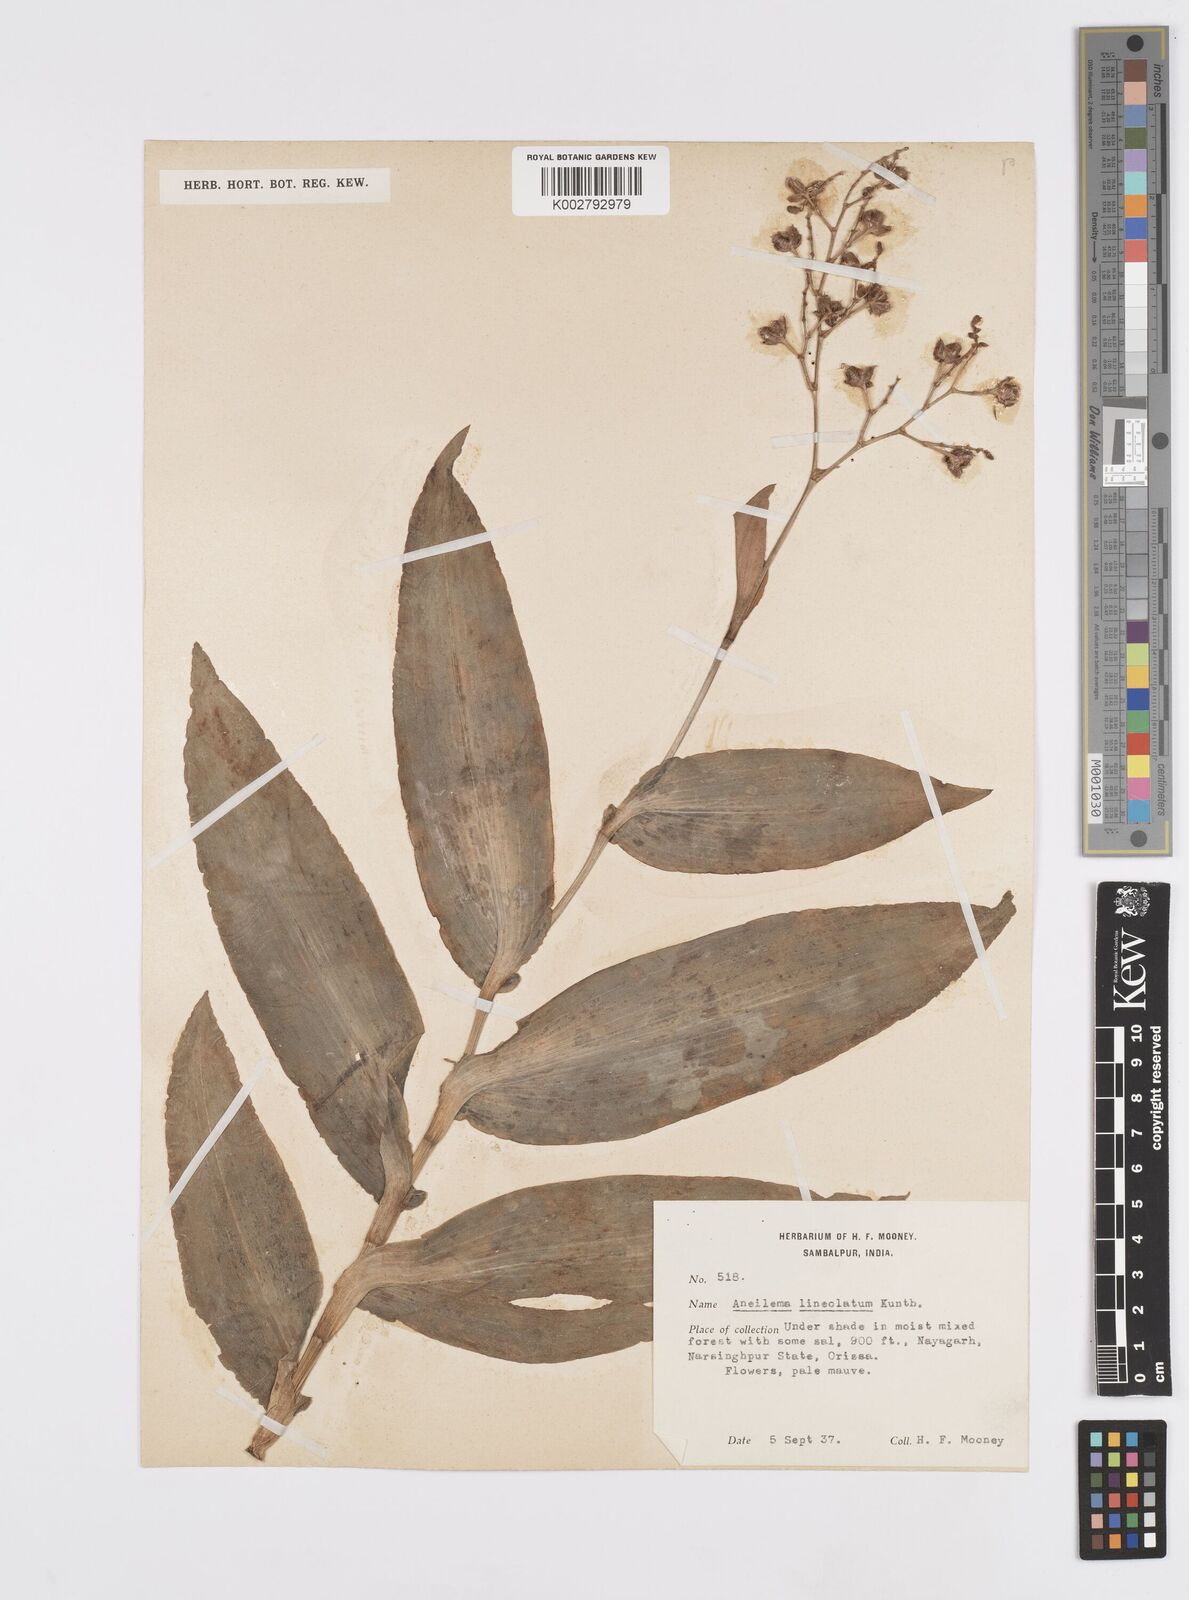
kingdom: Plantae
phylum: Tracheophyta
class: Liliopsida
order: Commelinales
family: Commelinaceae
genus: Murdannia
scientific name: Murdannia
